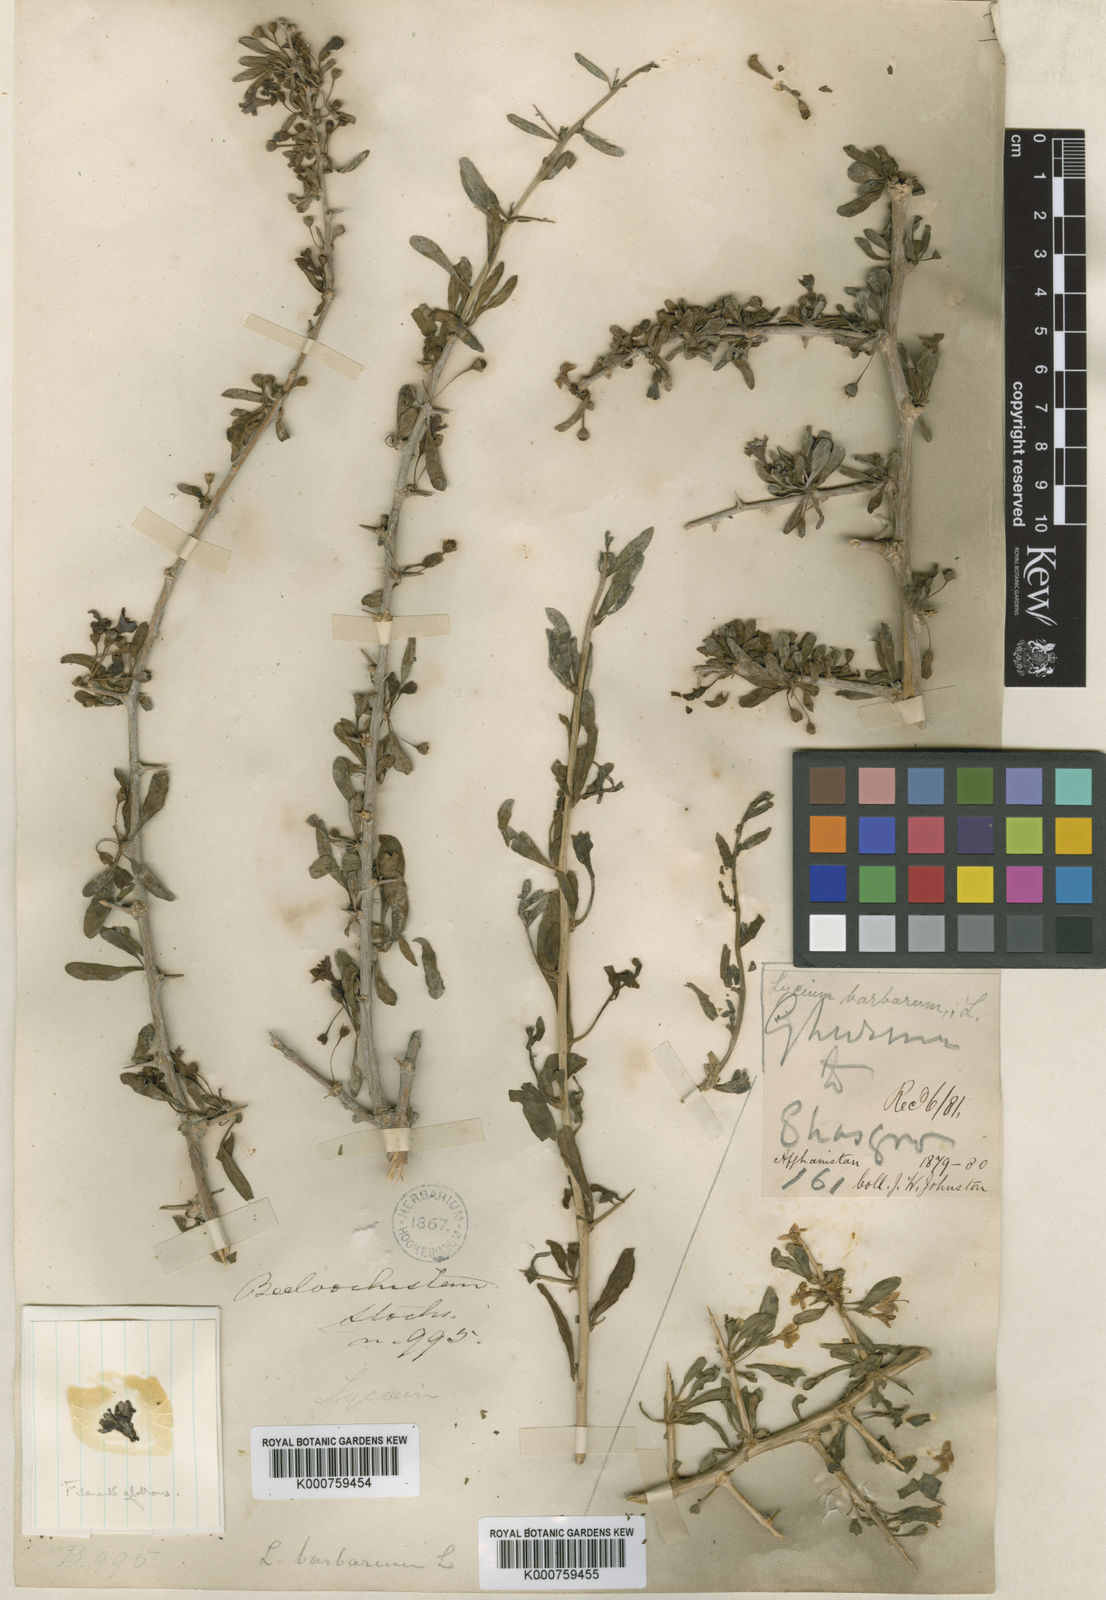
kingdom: Plantae
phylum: Tracheophyta
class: Magnoliopsida
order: Solanales
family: Solanaceae
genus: Lycium
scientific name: Lycium depressum
